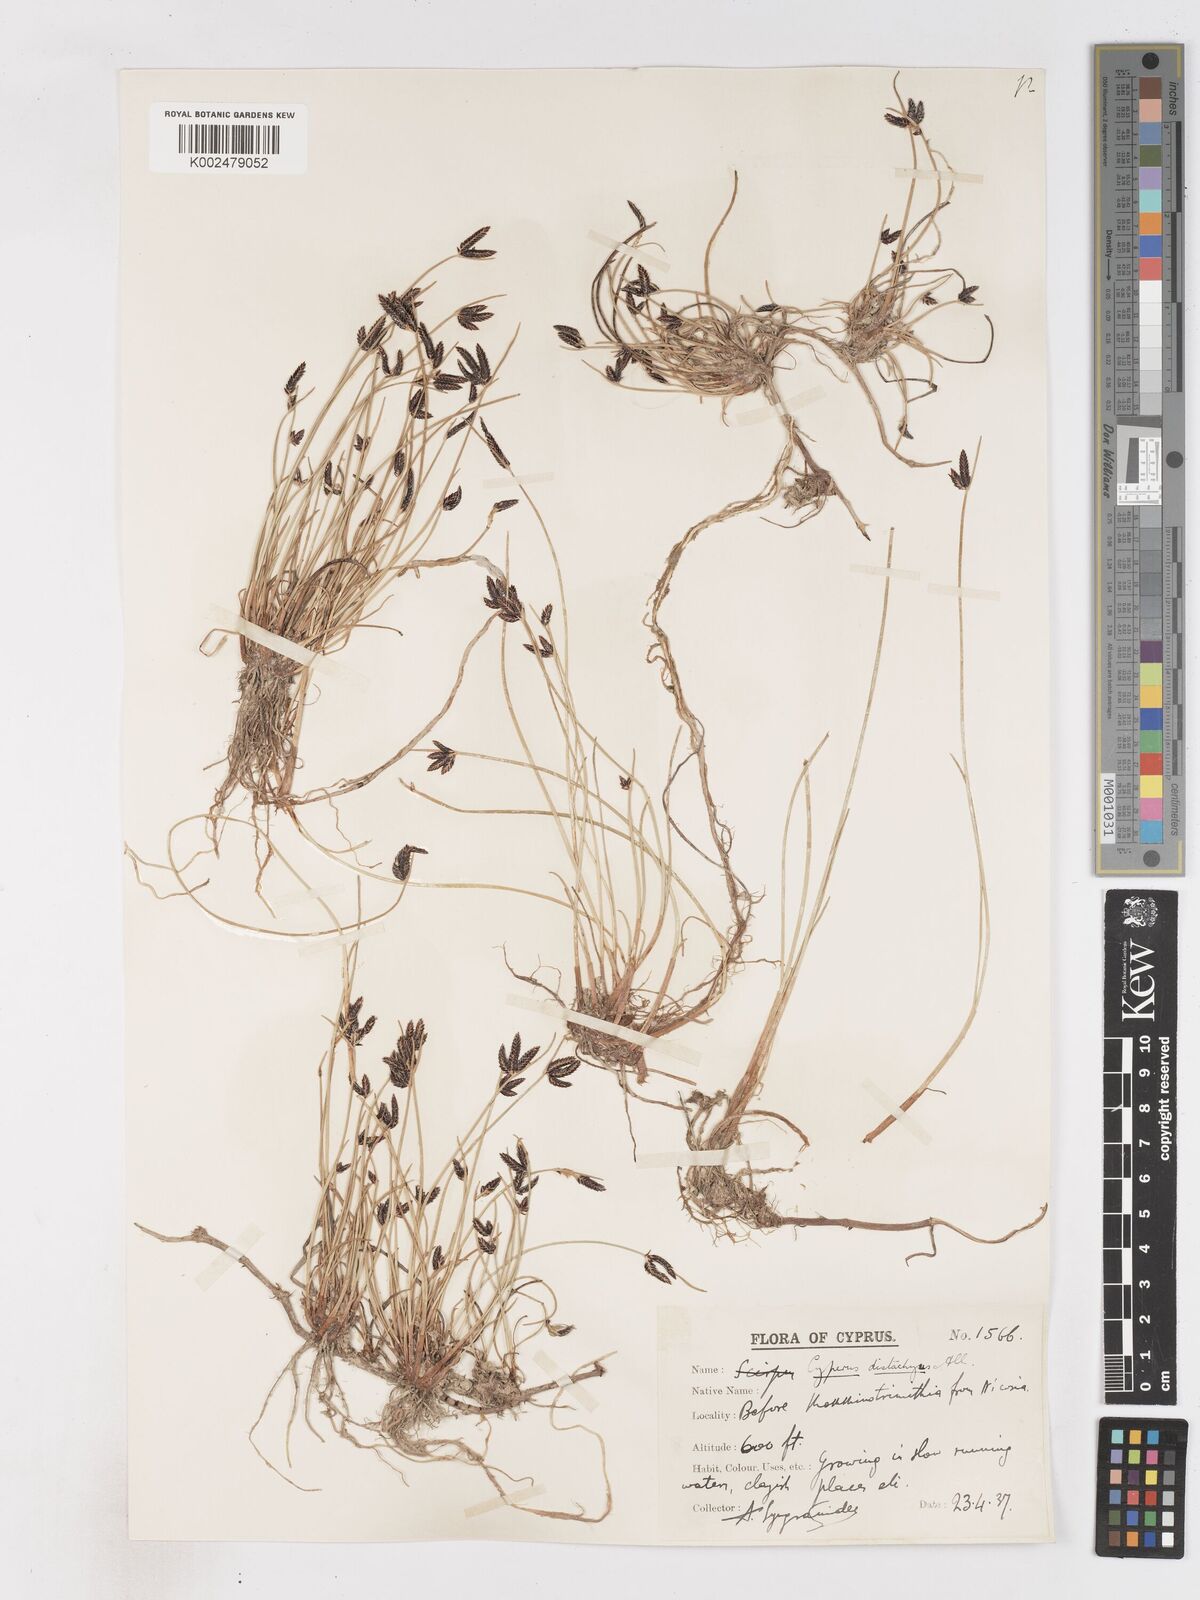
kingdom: Plantae
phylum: Tracheophyta
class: Liliopsida
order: Poales
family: Cyperaceae
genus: Cyperus
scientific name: Cyperus laevigatus
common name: Smooth flat sedge
